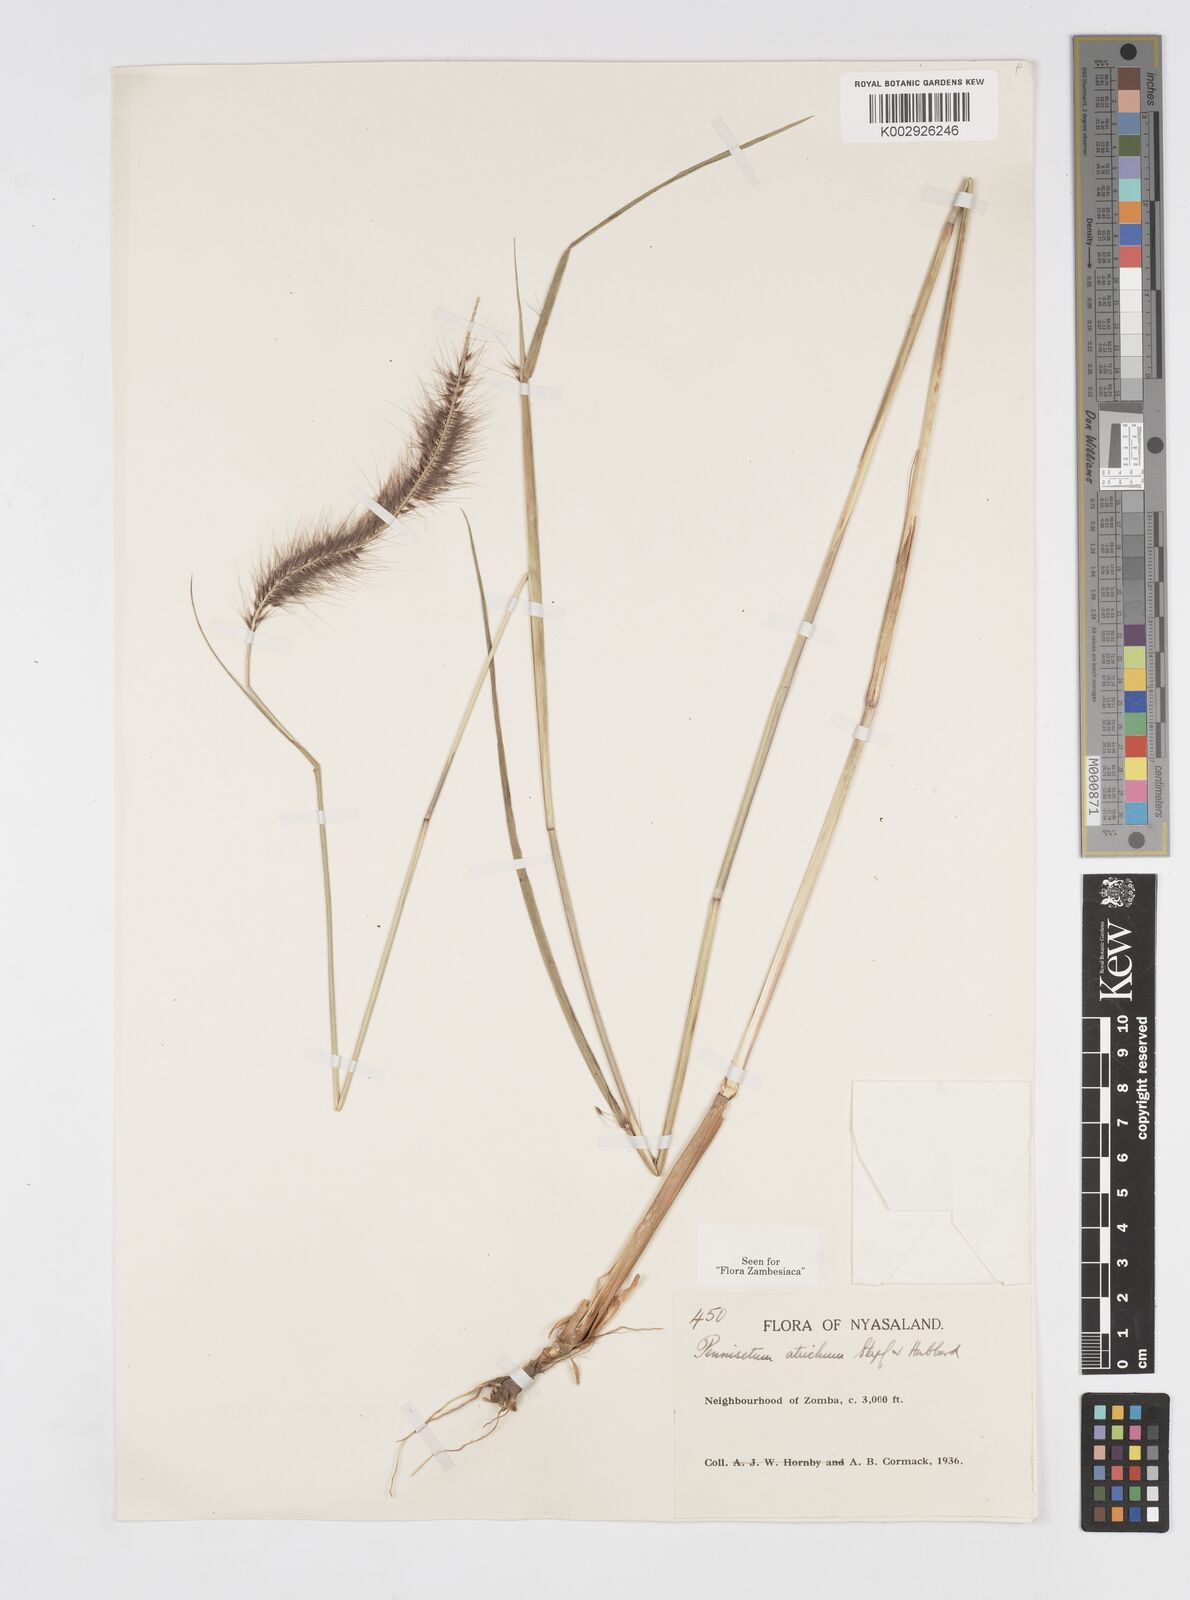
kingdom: Plantae
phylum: Tracheophyta
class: Liliopsida
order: Poales
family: Poaceae
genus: Cenchrus
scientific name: Cenchrus setosus
